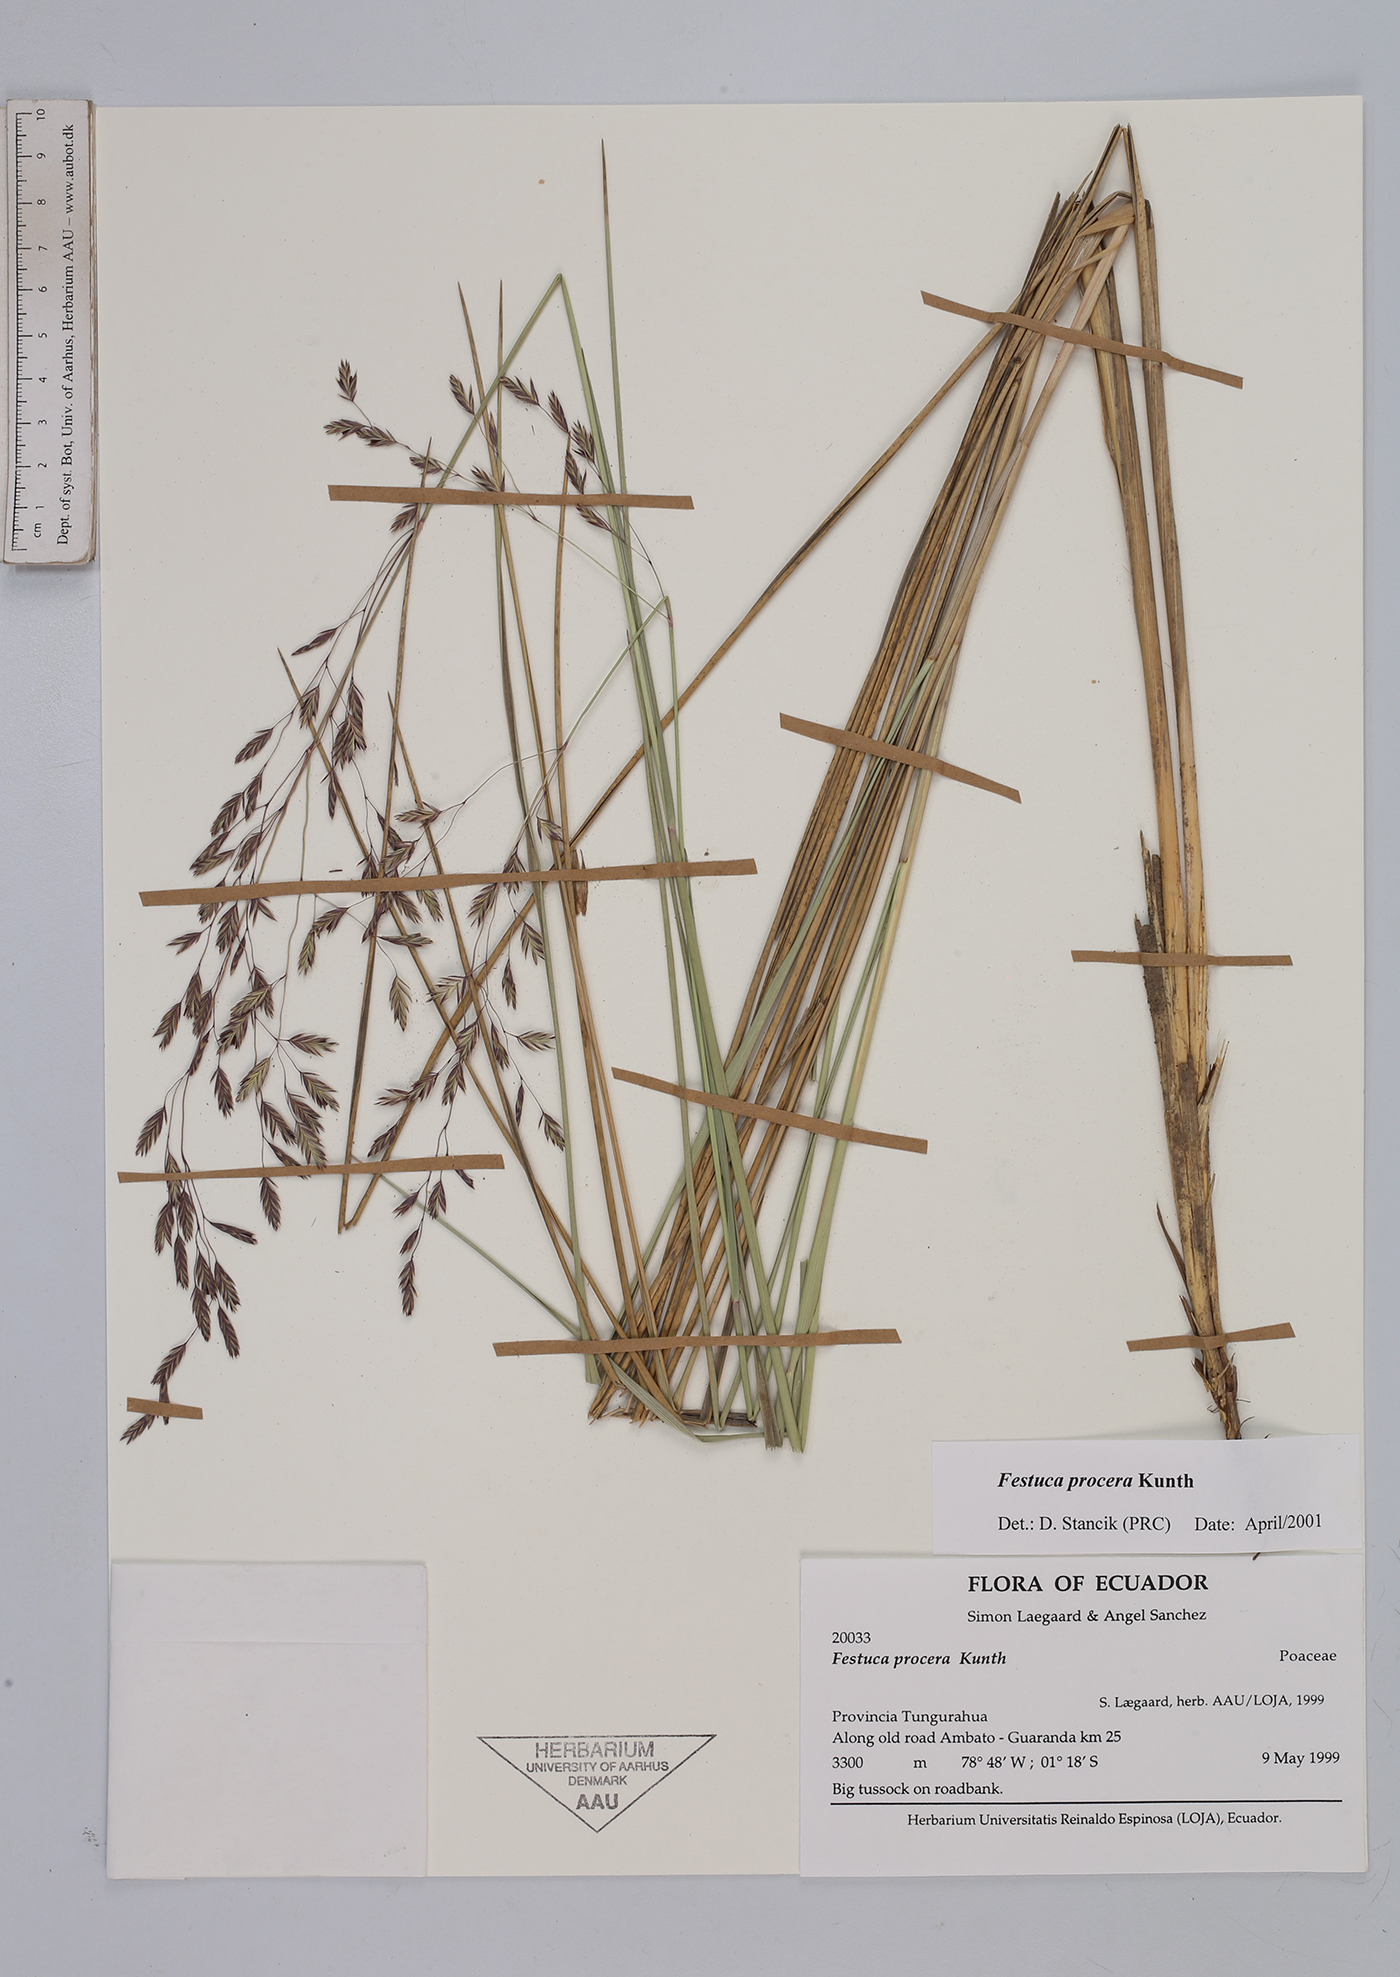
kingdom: Plantae
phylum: Tracheophyta
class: Liliopsida
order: Poales
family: Poaceae
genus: Festuca
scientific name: Festuca procera
